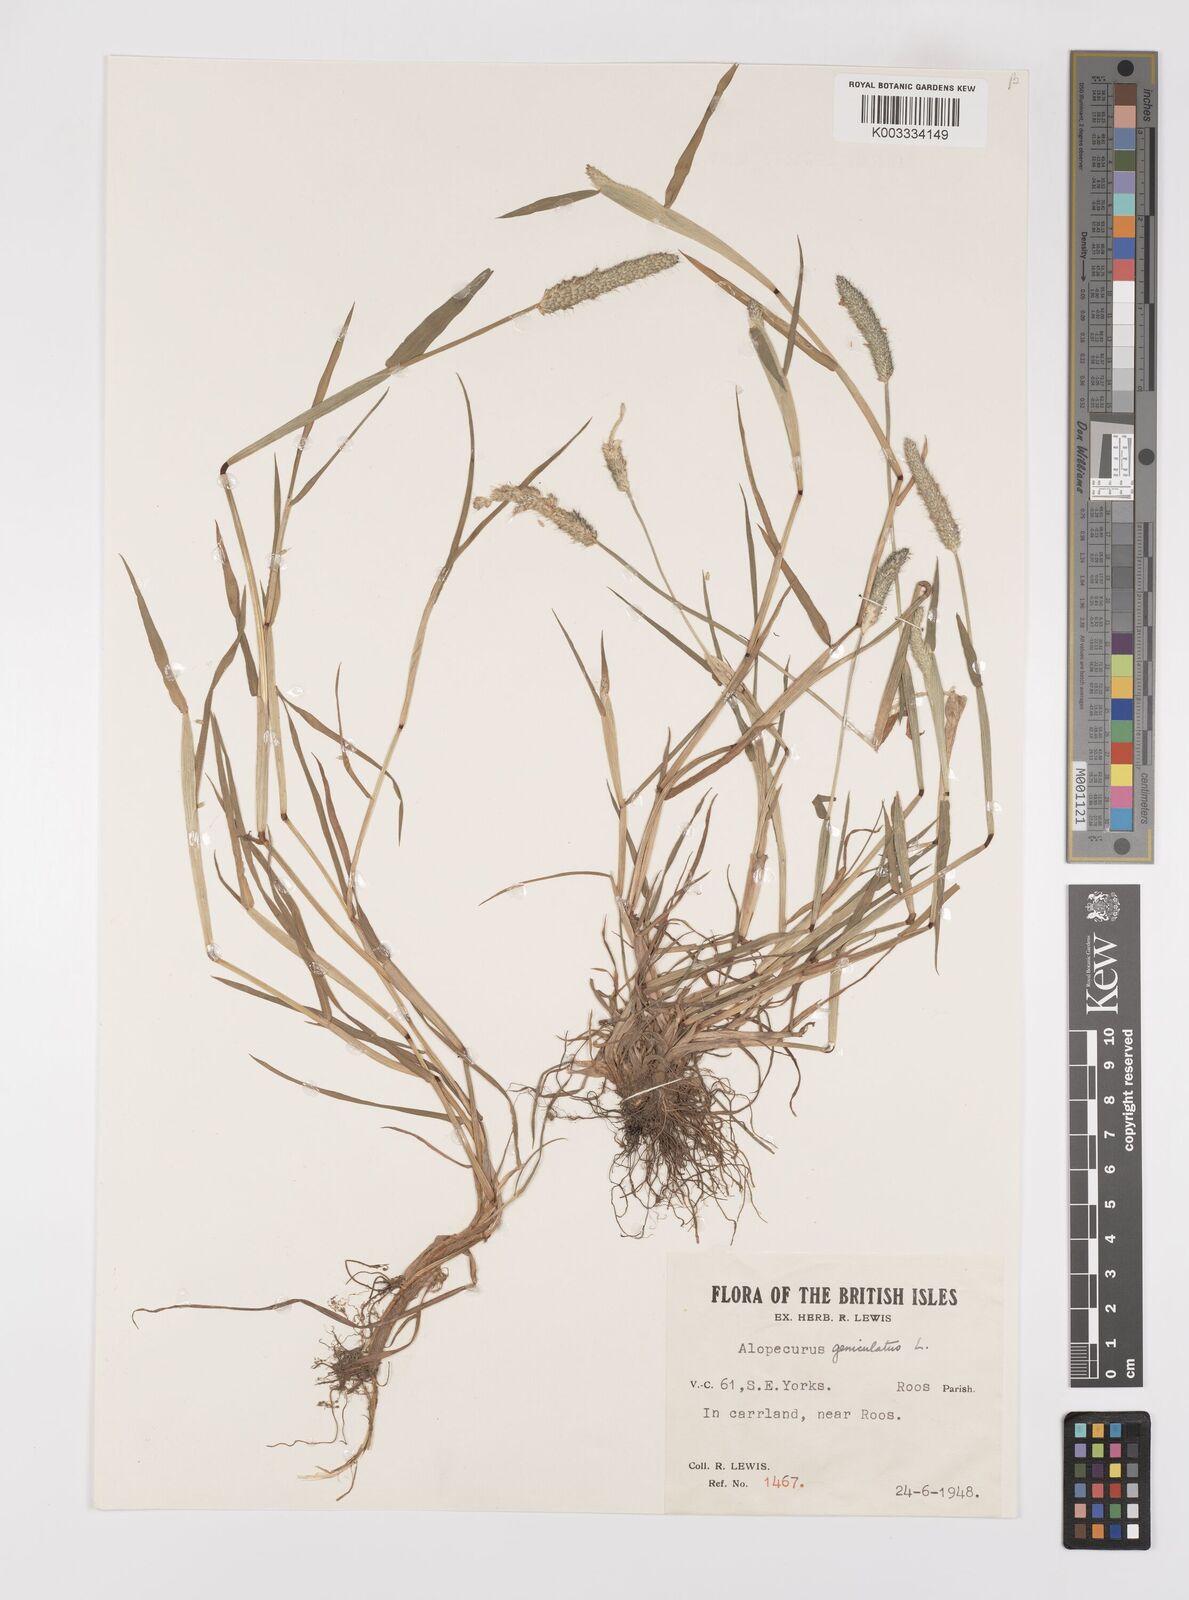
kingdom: Plantae
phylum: Tracheophyta
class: Liliopsida
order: Poales
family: Poaceae
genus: Alopecurus
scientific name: Alopecurus geniculatus
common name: Water foxtail
